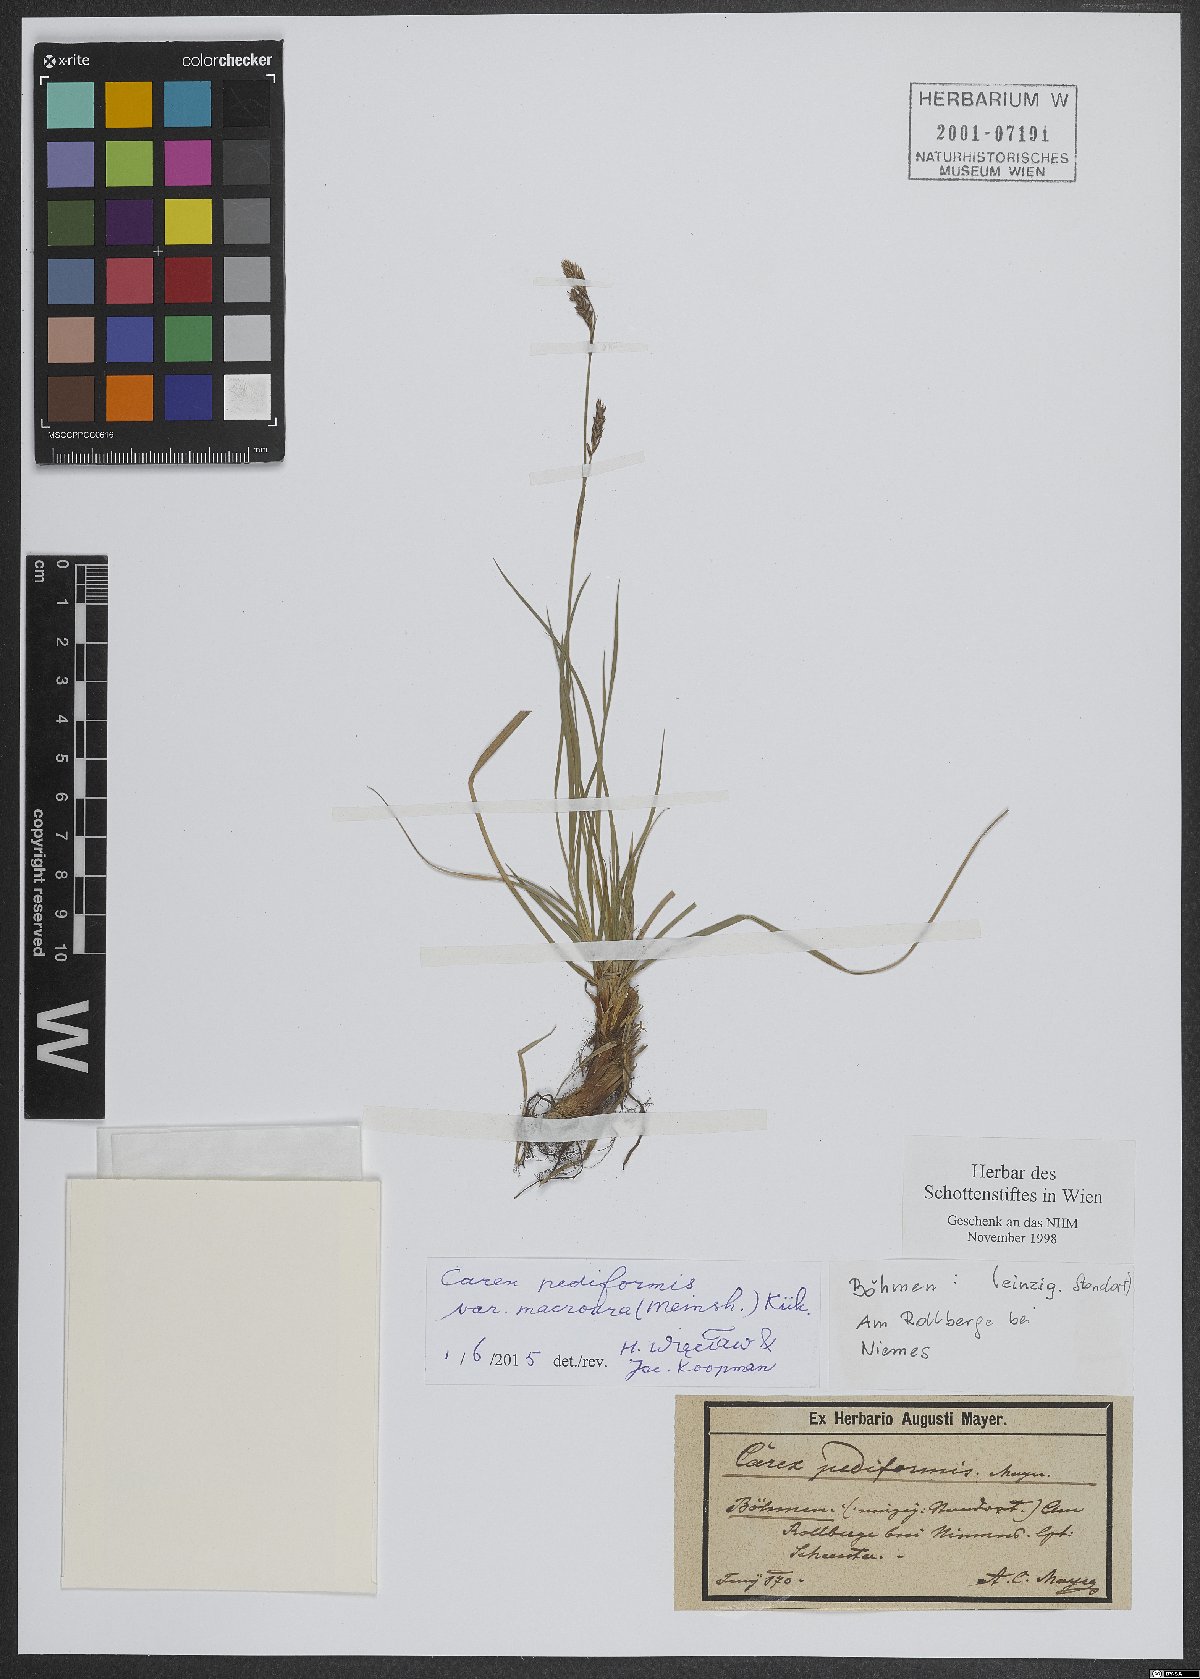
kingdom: Plantae
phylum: Tracheophyta
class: Liliopsida
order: Poales
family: Cyperaceae
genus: Carex
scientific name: Carex pediformis
